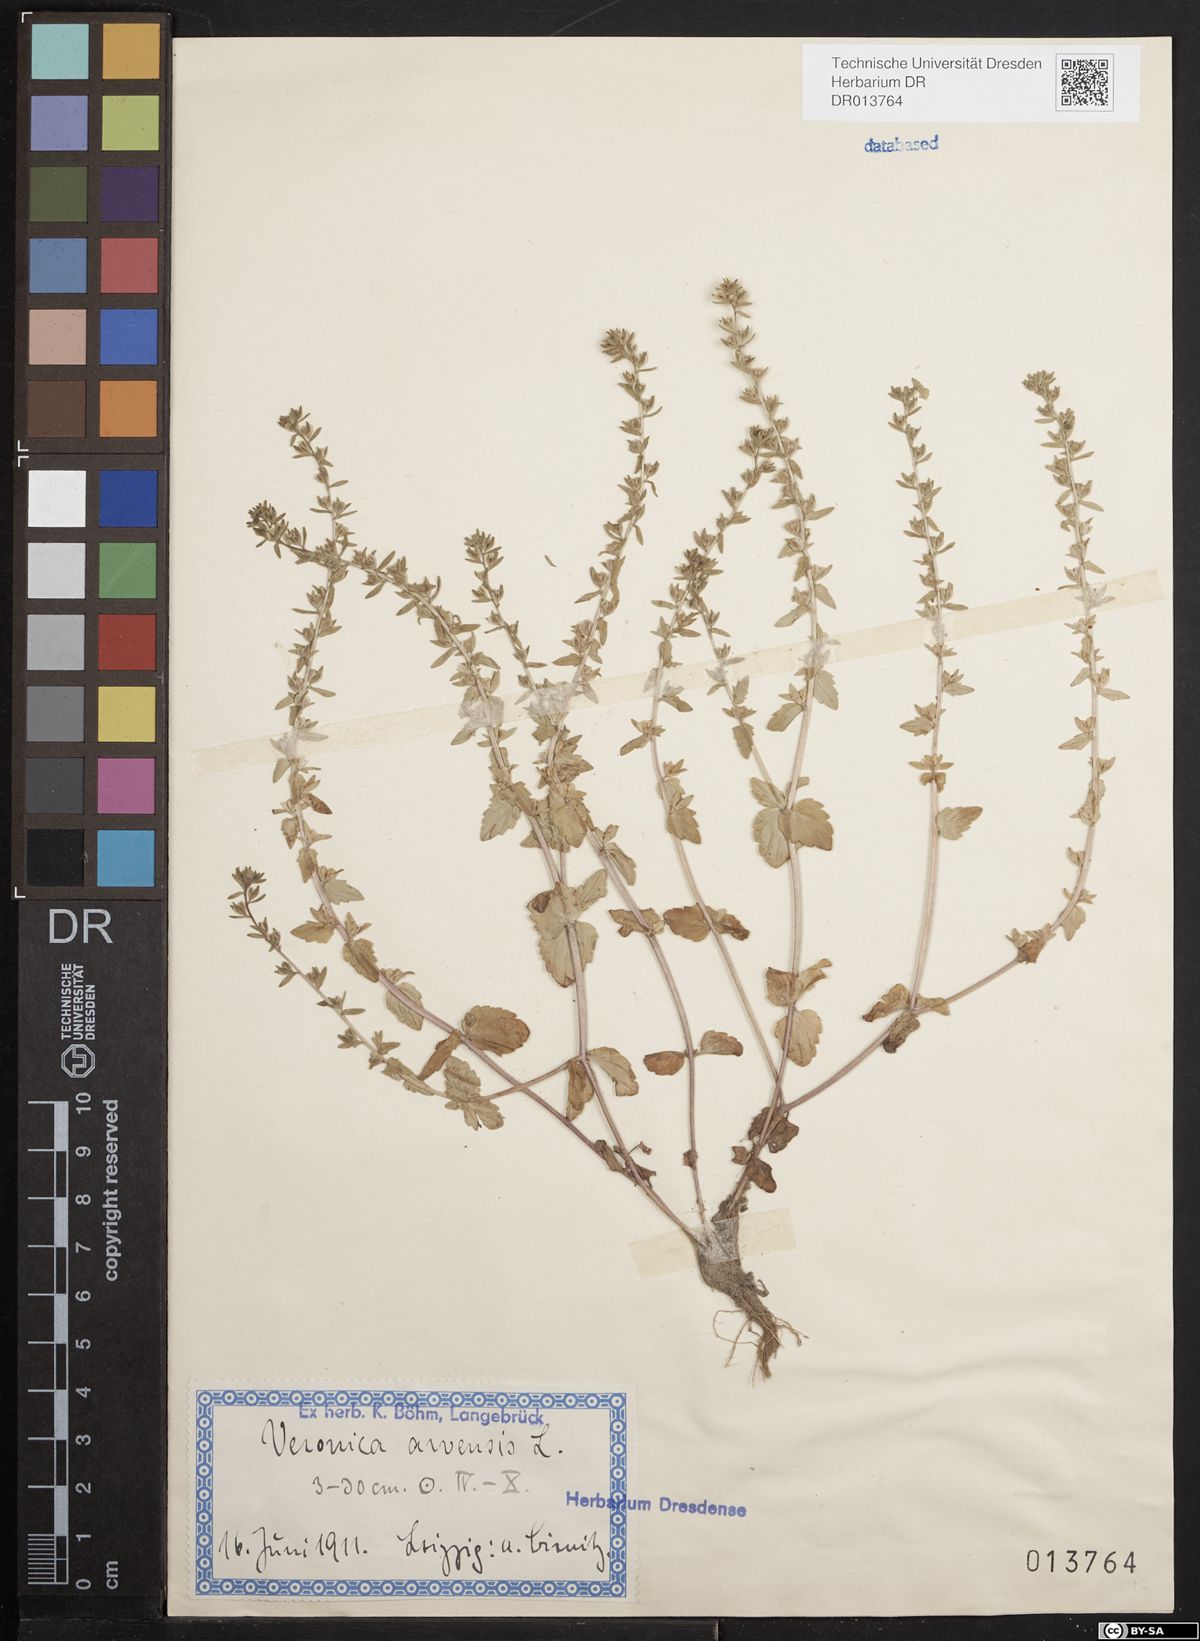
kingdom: Plantae
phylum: Tracheophyta
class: Magnoliopsida
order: Lamiales
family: Plantaginaceae
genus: Veronica
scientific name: Veronica arvensis
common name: Corn speedwell
